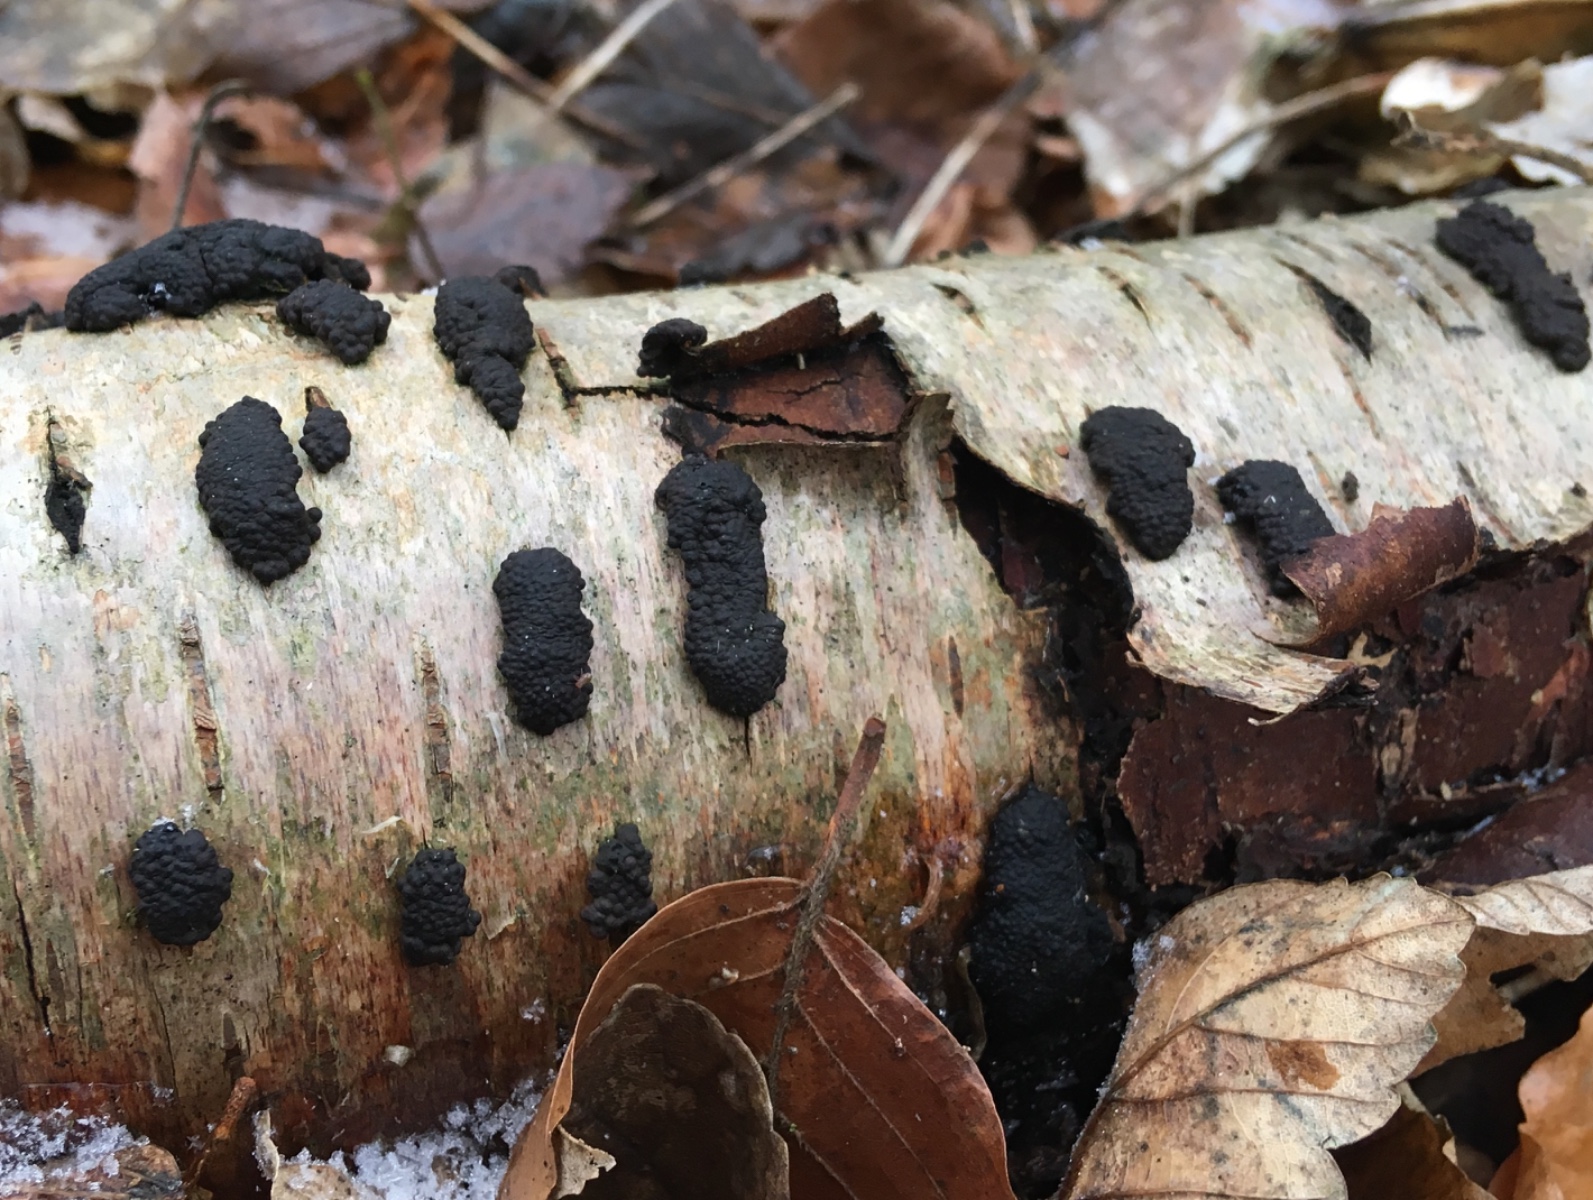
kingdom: Fungi
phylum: Ascomycota
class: Sordariomycetes
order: Xylariales
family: Hypoxylaceae
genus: Jackrogersella
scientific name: Jackrogersella multiformis
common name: foranderlig kulbær
